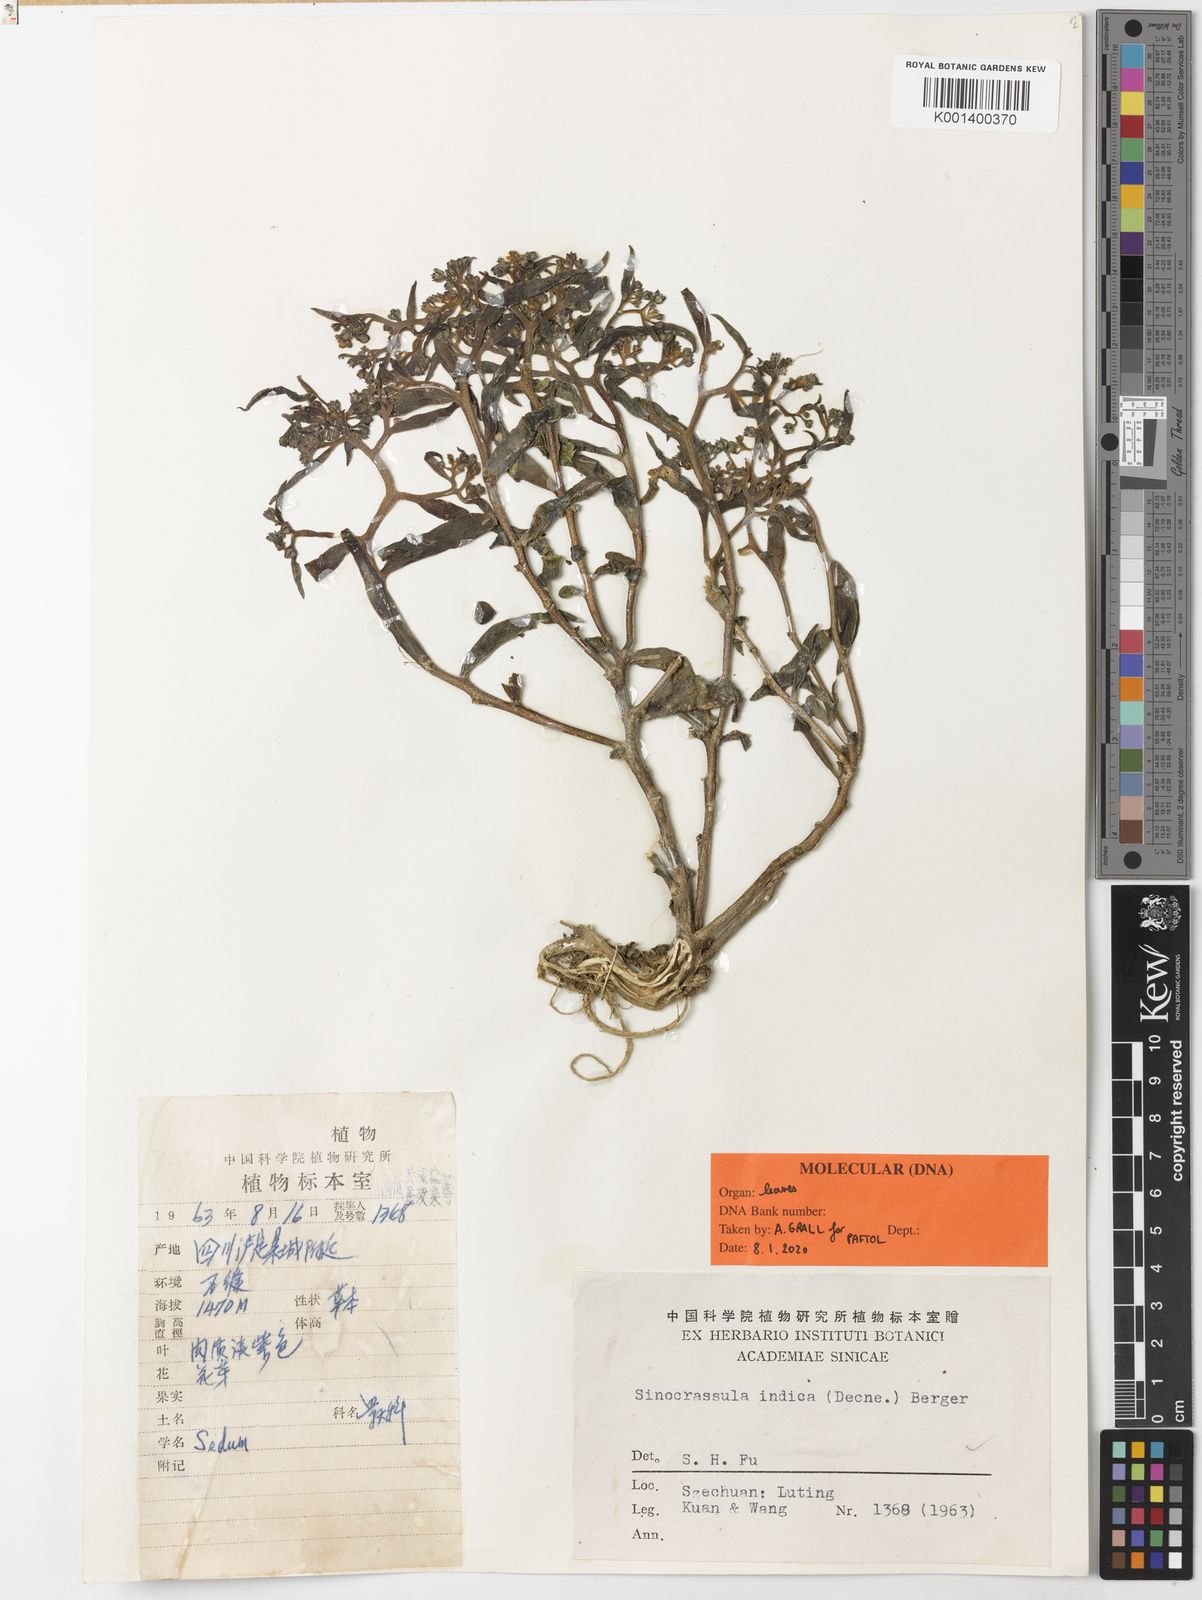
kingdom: Plantae
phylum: Tracheophyta
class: Magnoliopsida
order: Saxifragales
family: Crassulaceae
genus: Sinocrassula
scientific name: Sinocrassula indica
